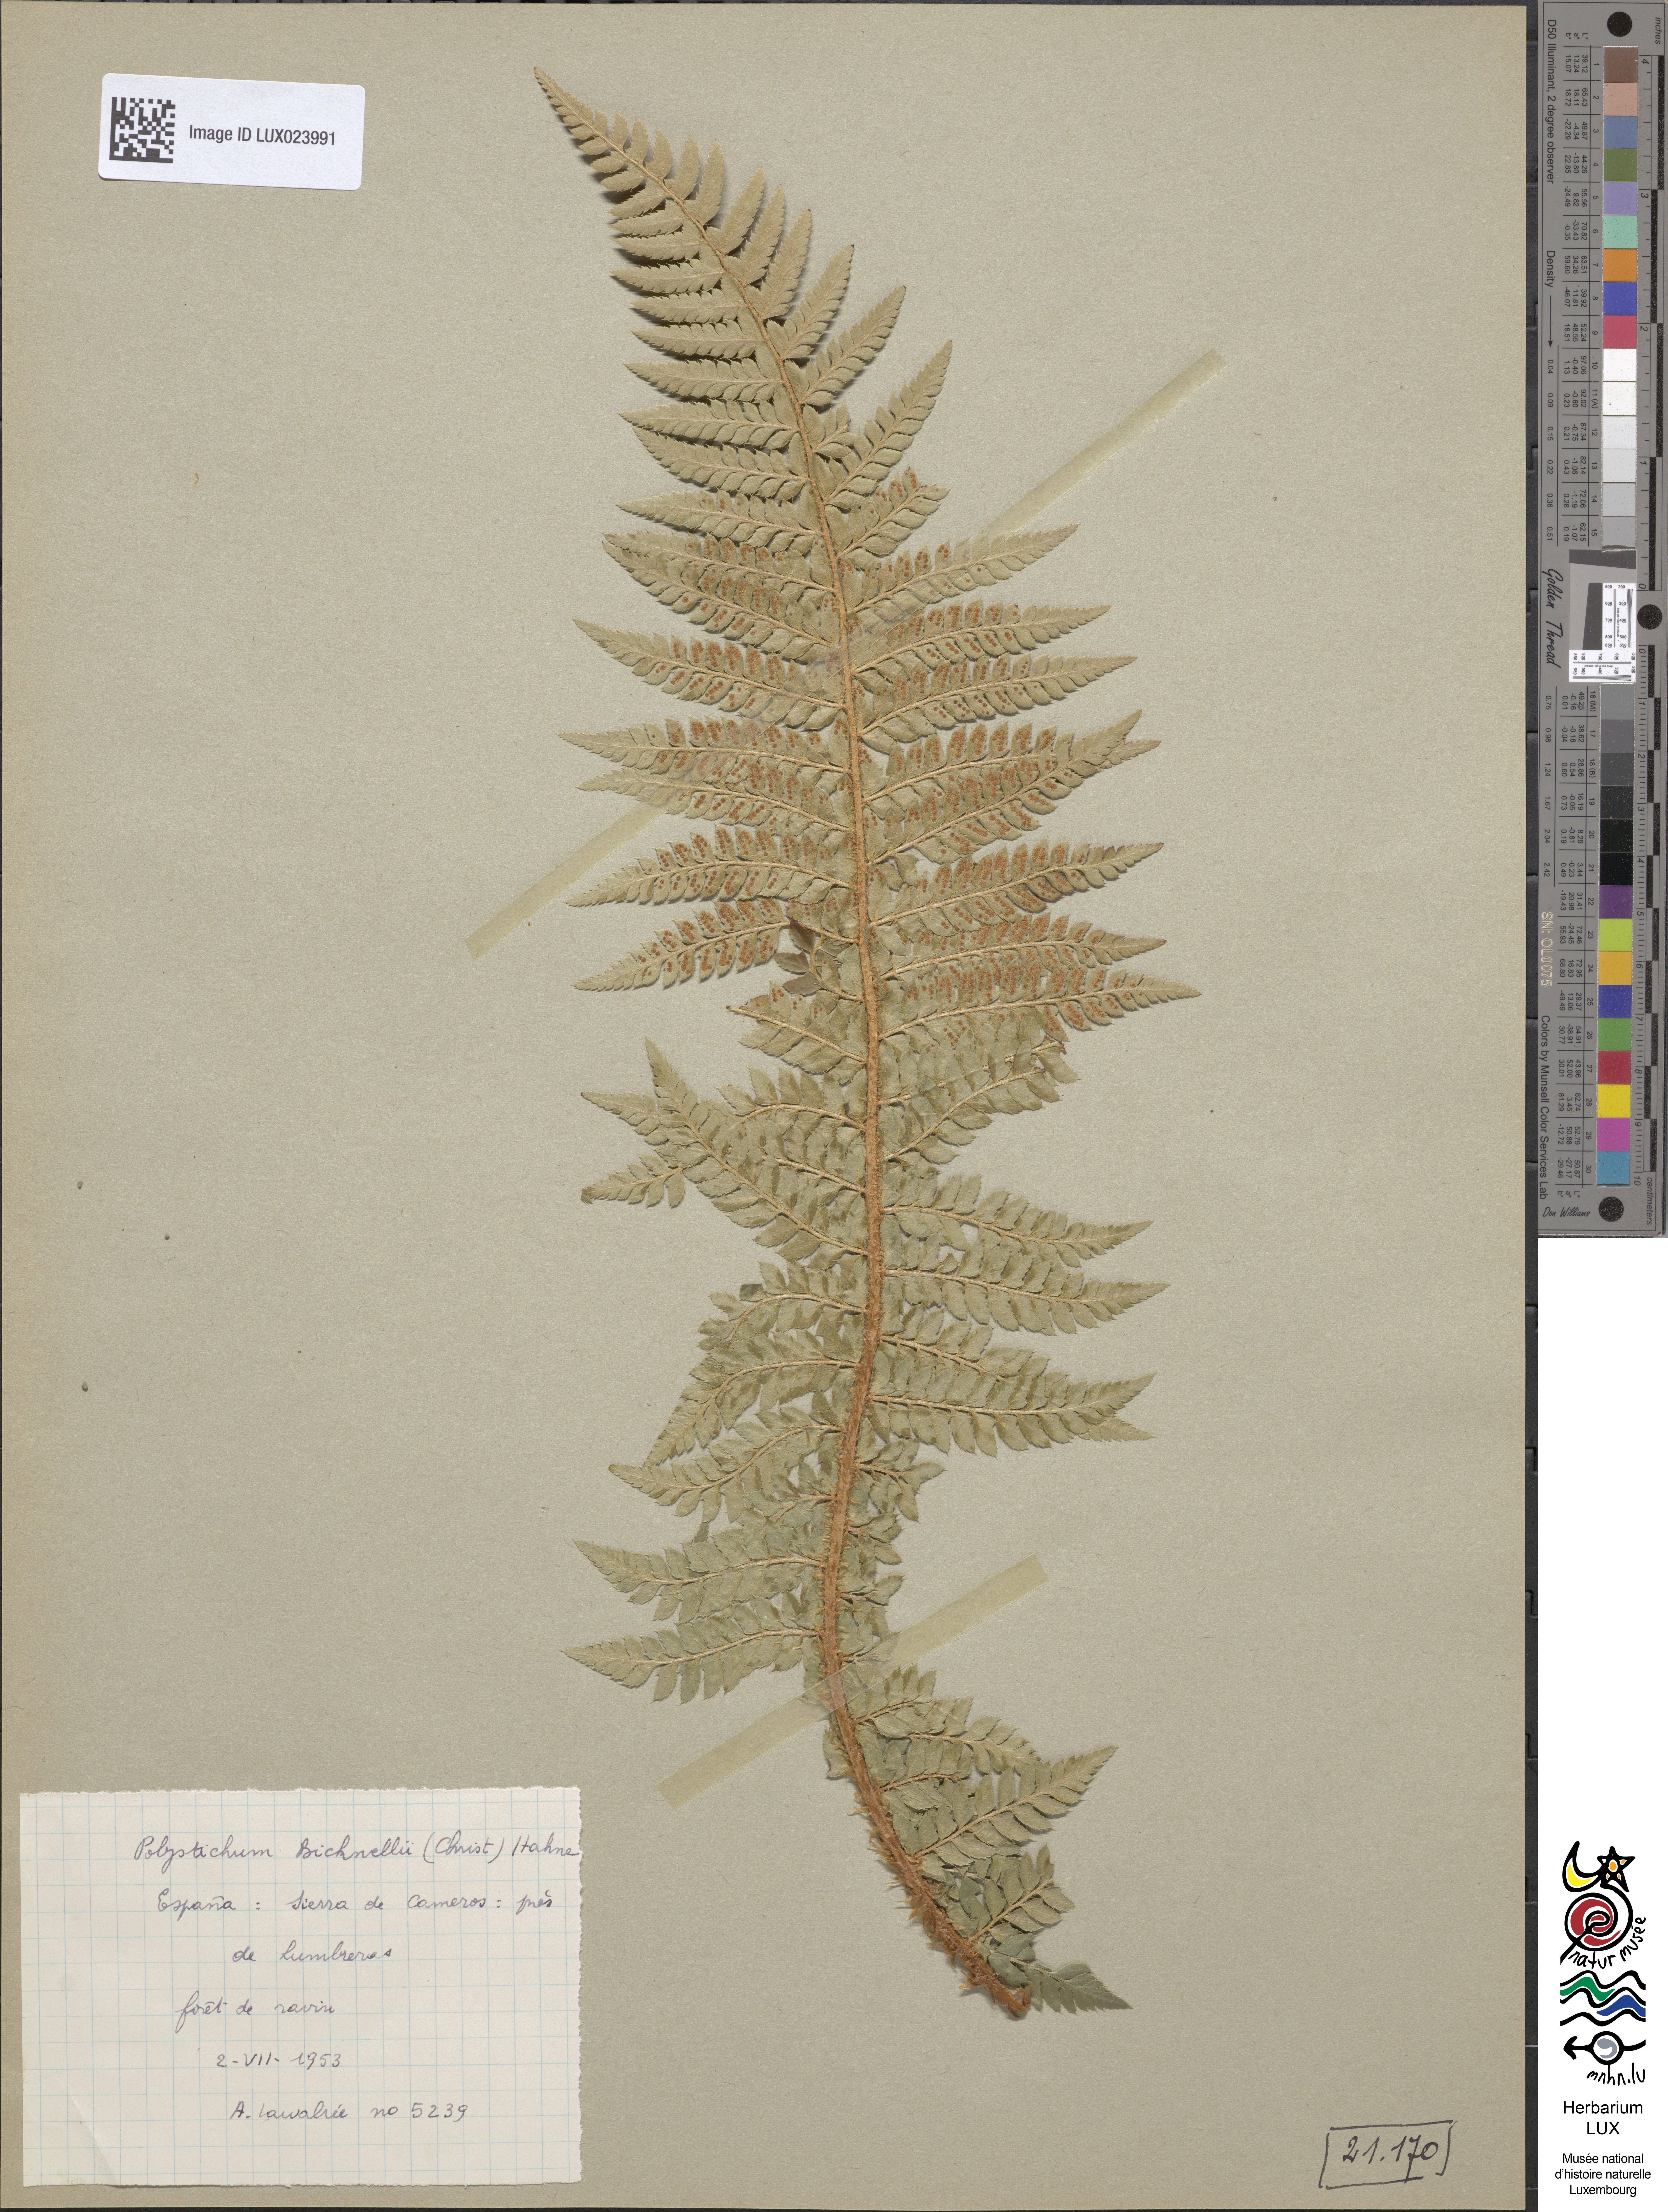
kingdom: Plantae
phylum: Tracheophyta
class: Polypodiopsida
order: Polypodiales
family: Dryopteridaceae
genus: Polystichum
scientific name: Polystichum
